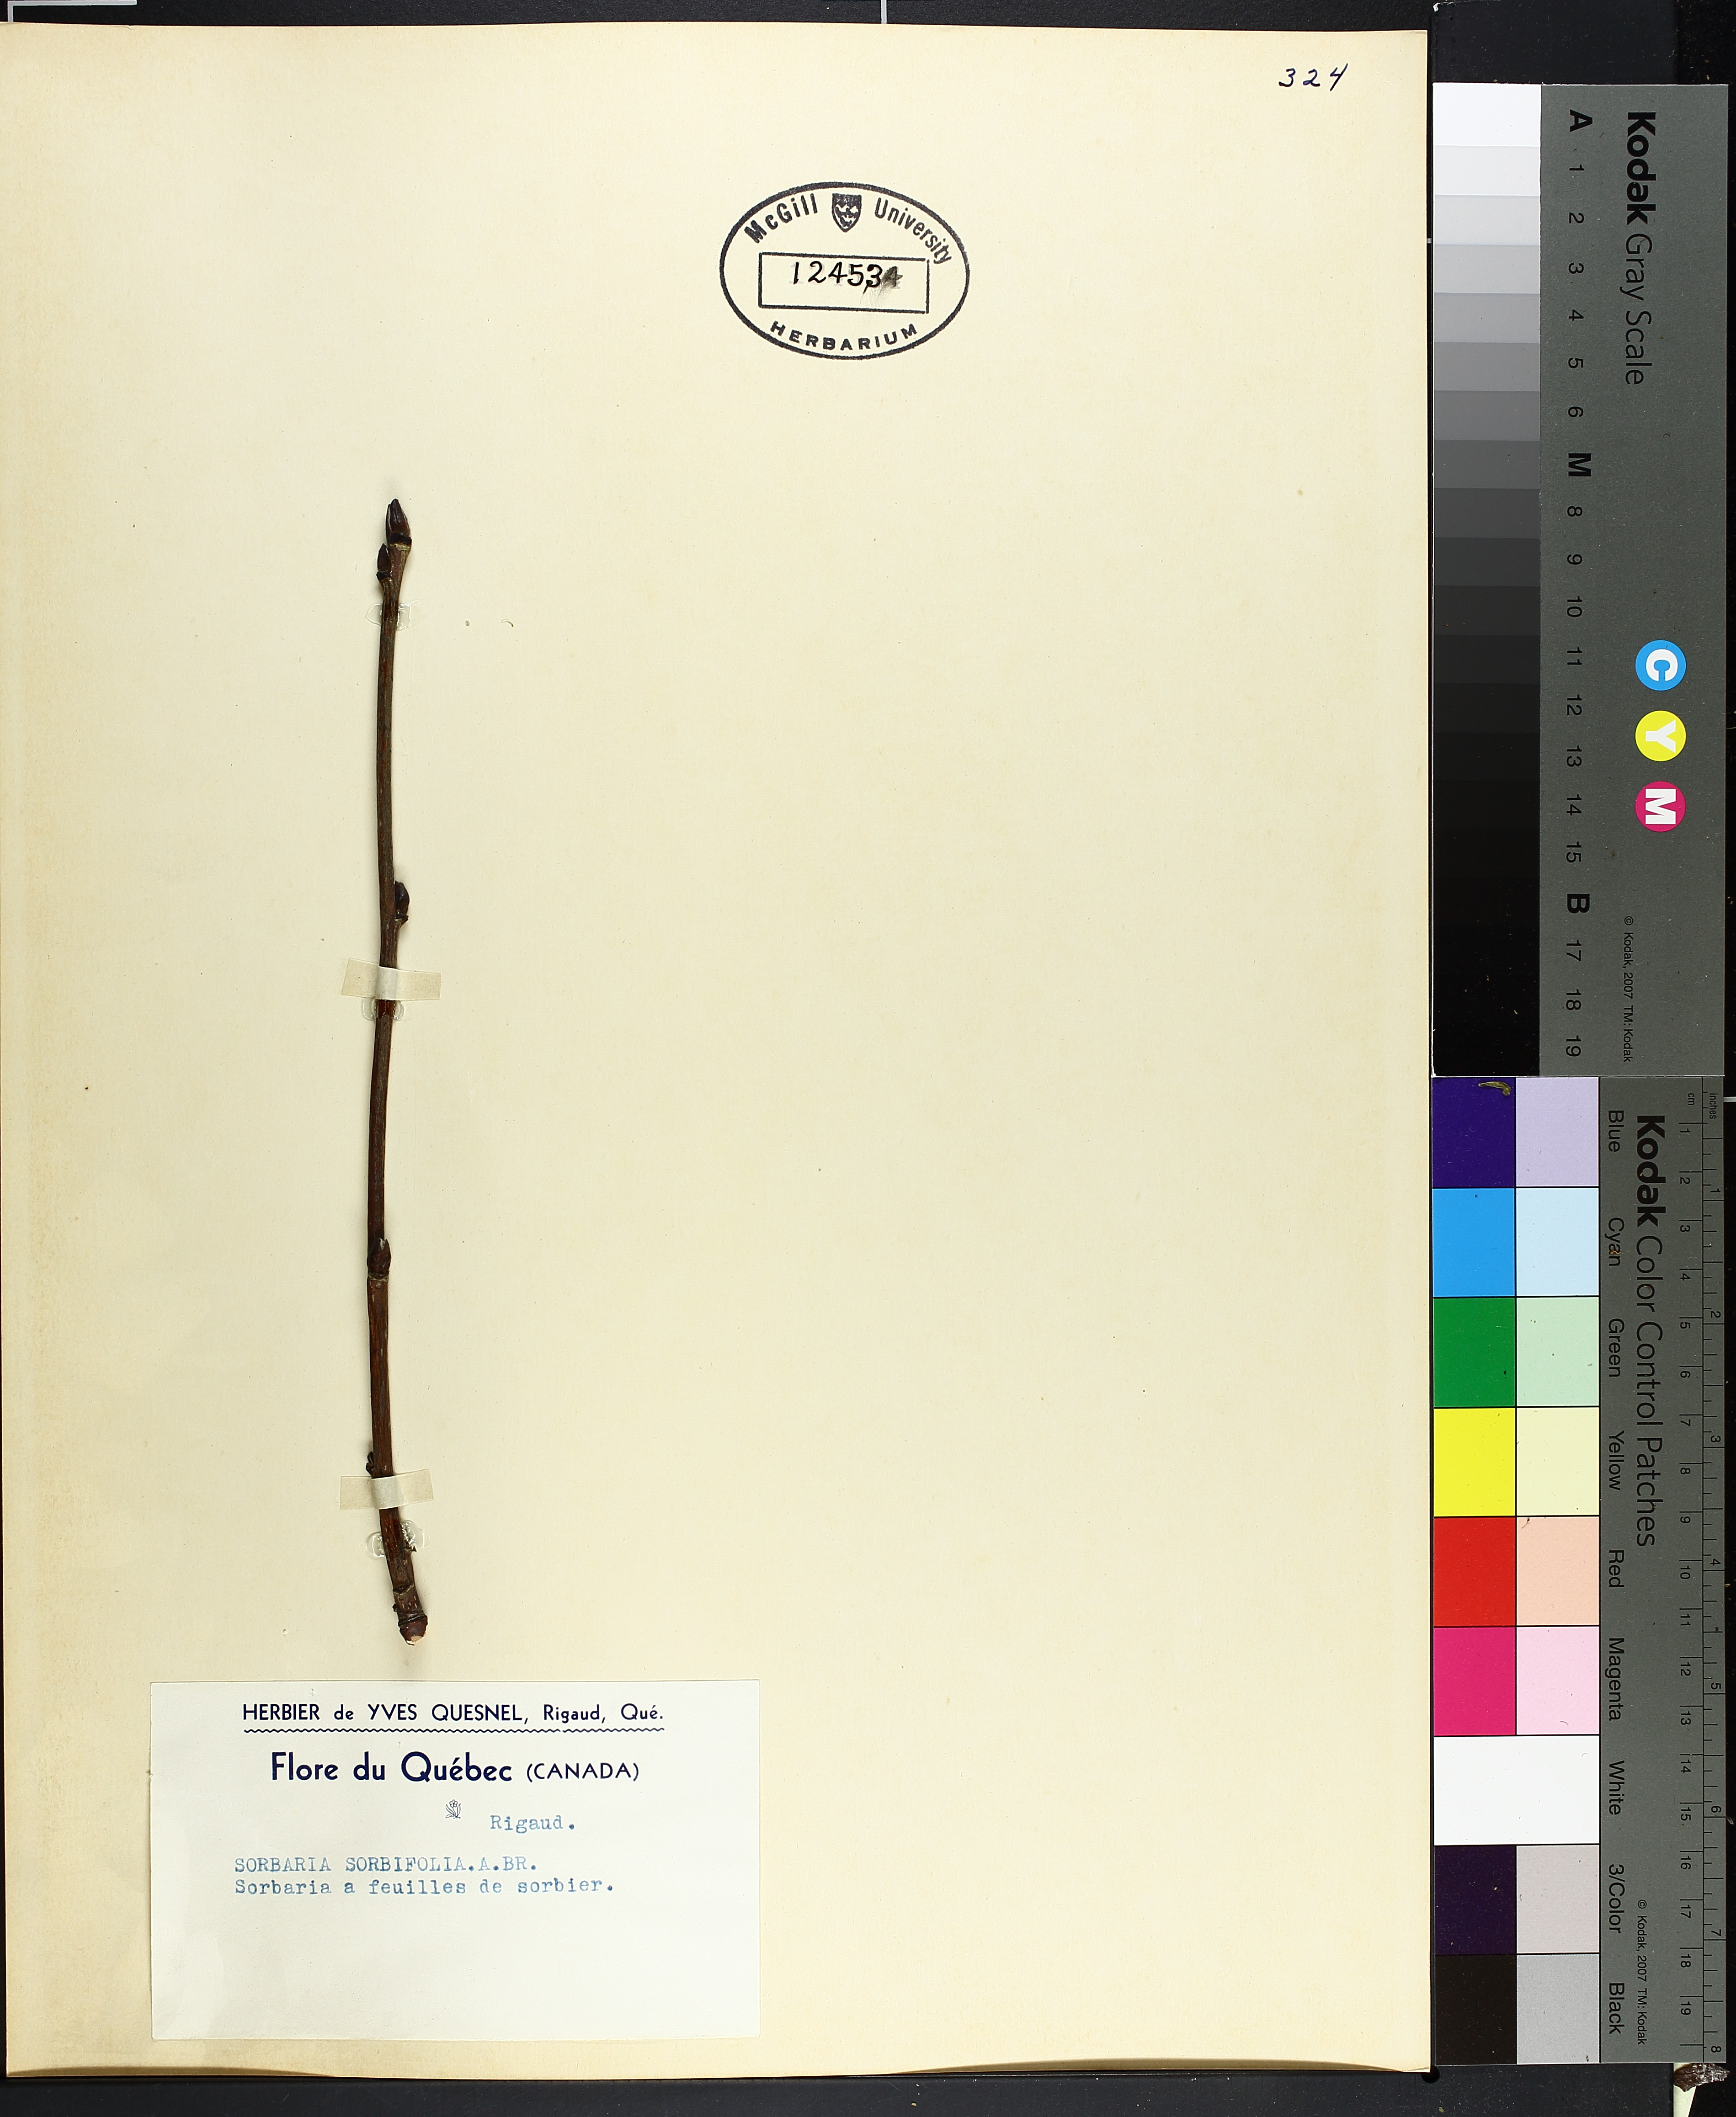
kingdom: Plantae
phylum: Tracheophyta
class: Liliopsida
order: Poales
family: Cyperaceae
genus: Carex
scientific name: Carex scoparia
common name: Broom sedge
